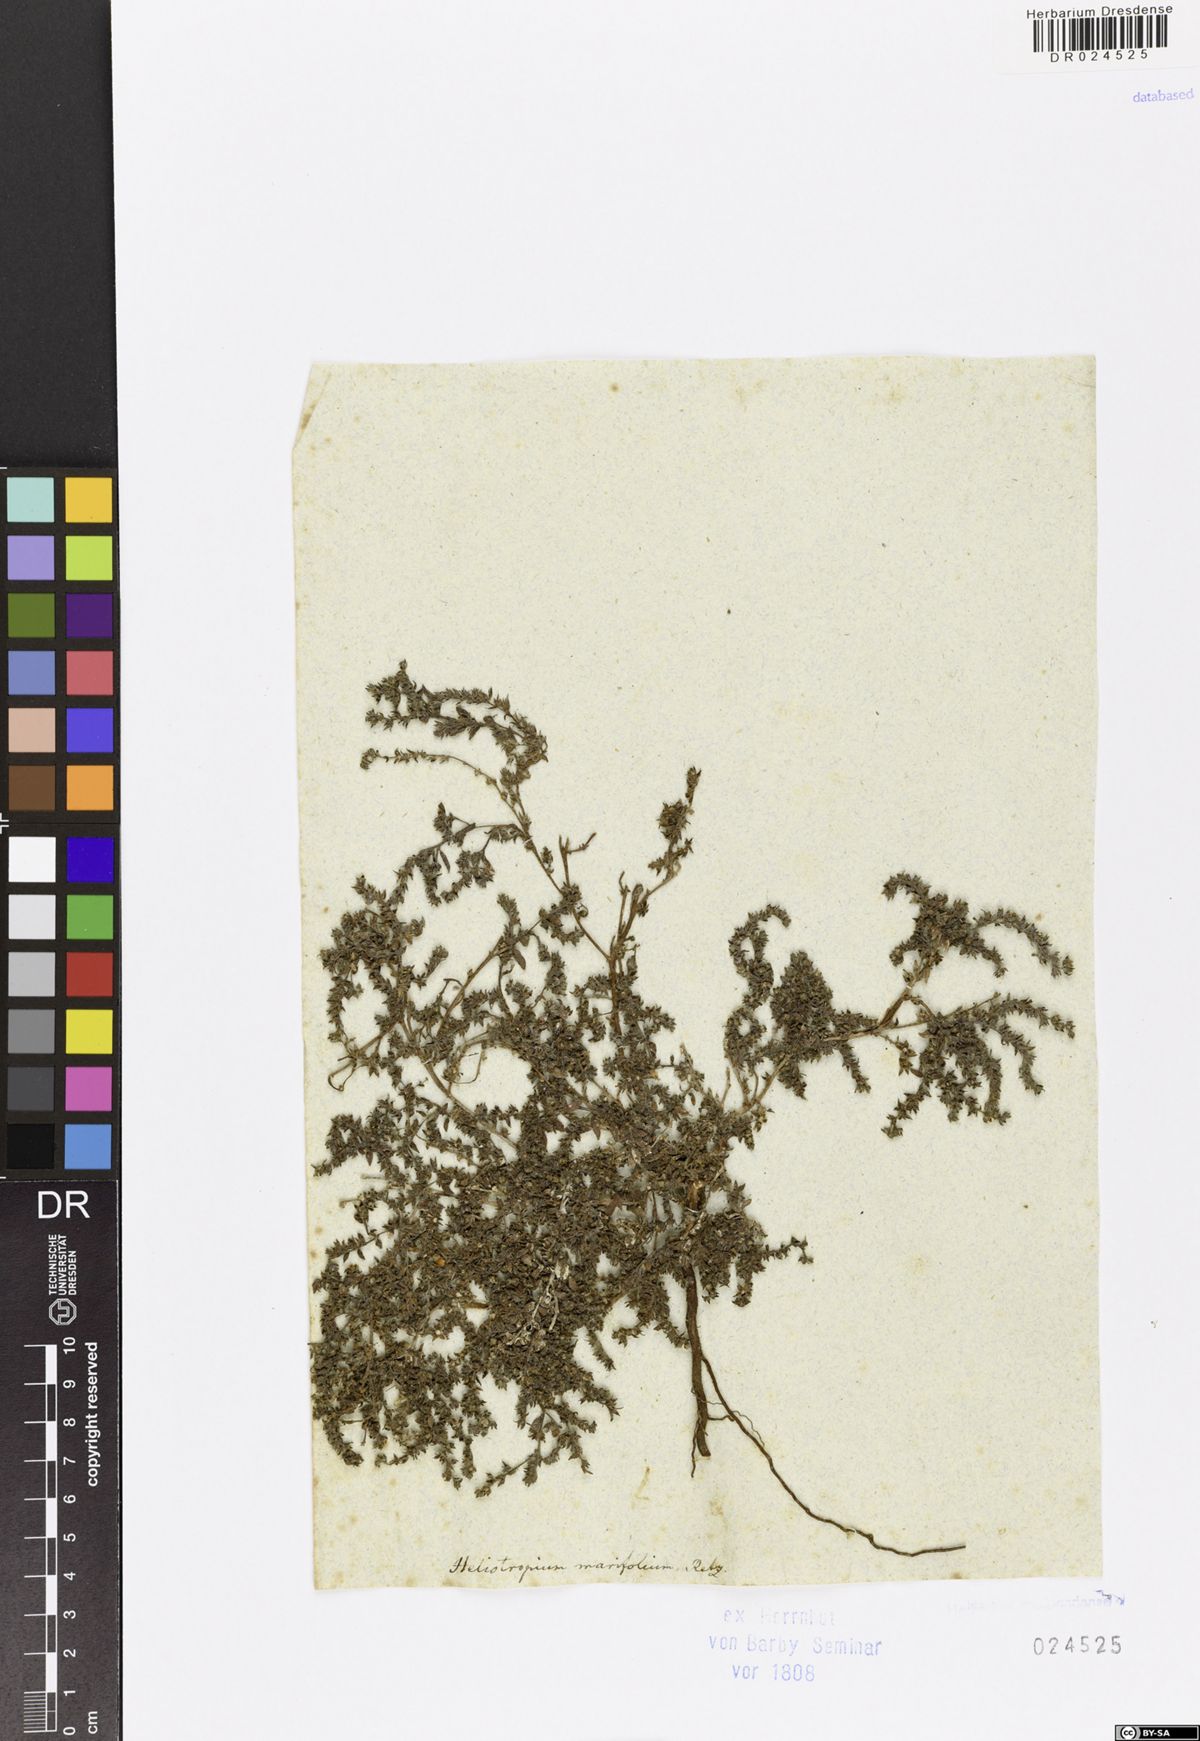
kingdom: Plantae
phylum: Tracheophyta
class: Magnoliopsida
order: Boraginales
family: Heliotropiaceae
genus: Euploca
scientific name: Euploca marifolia
